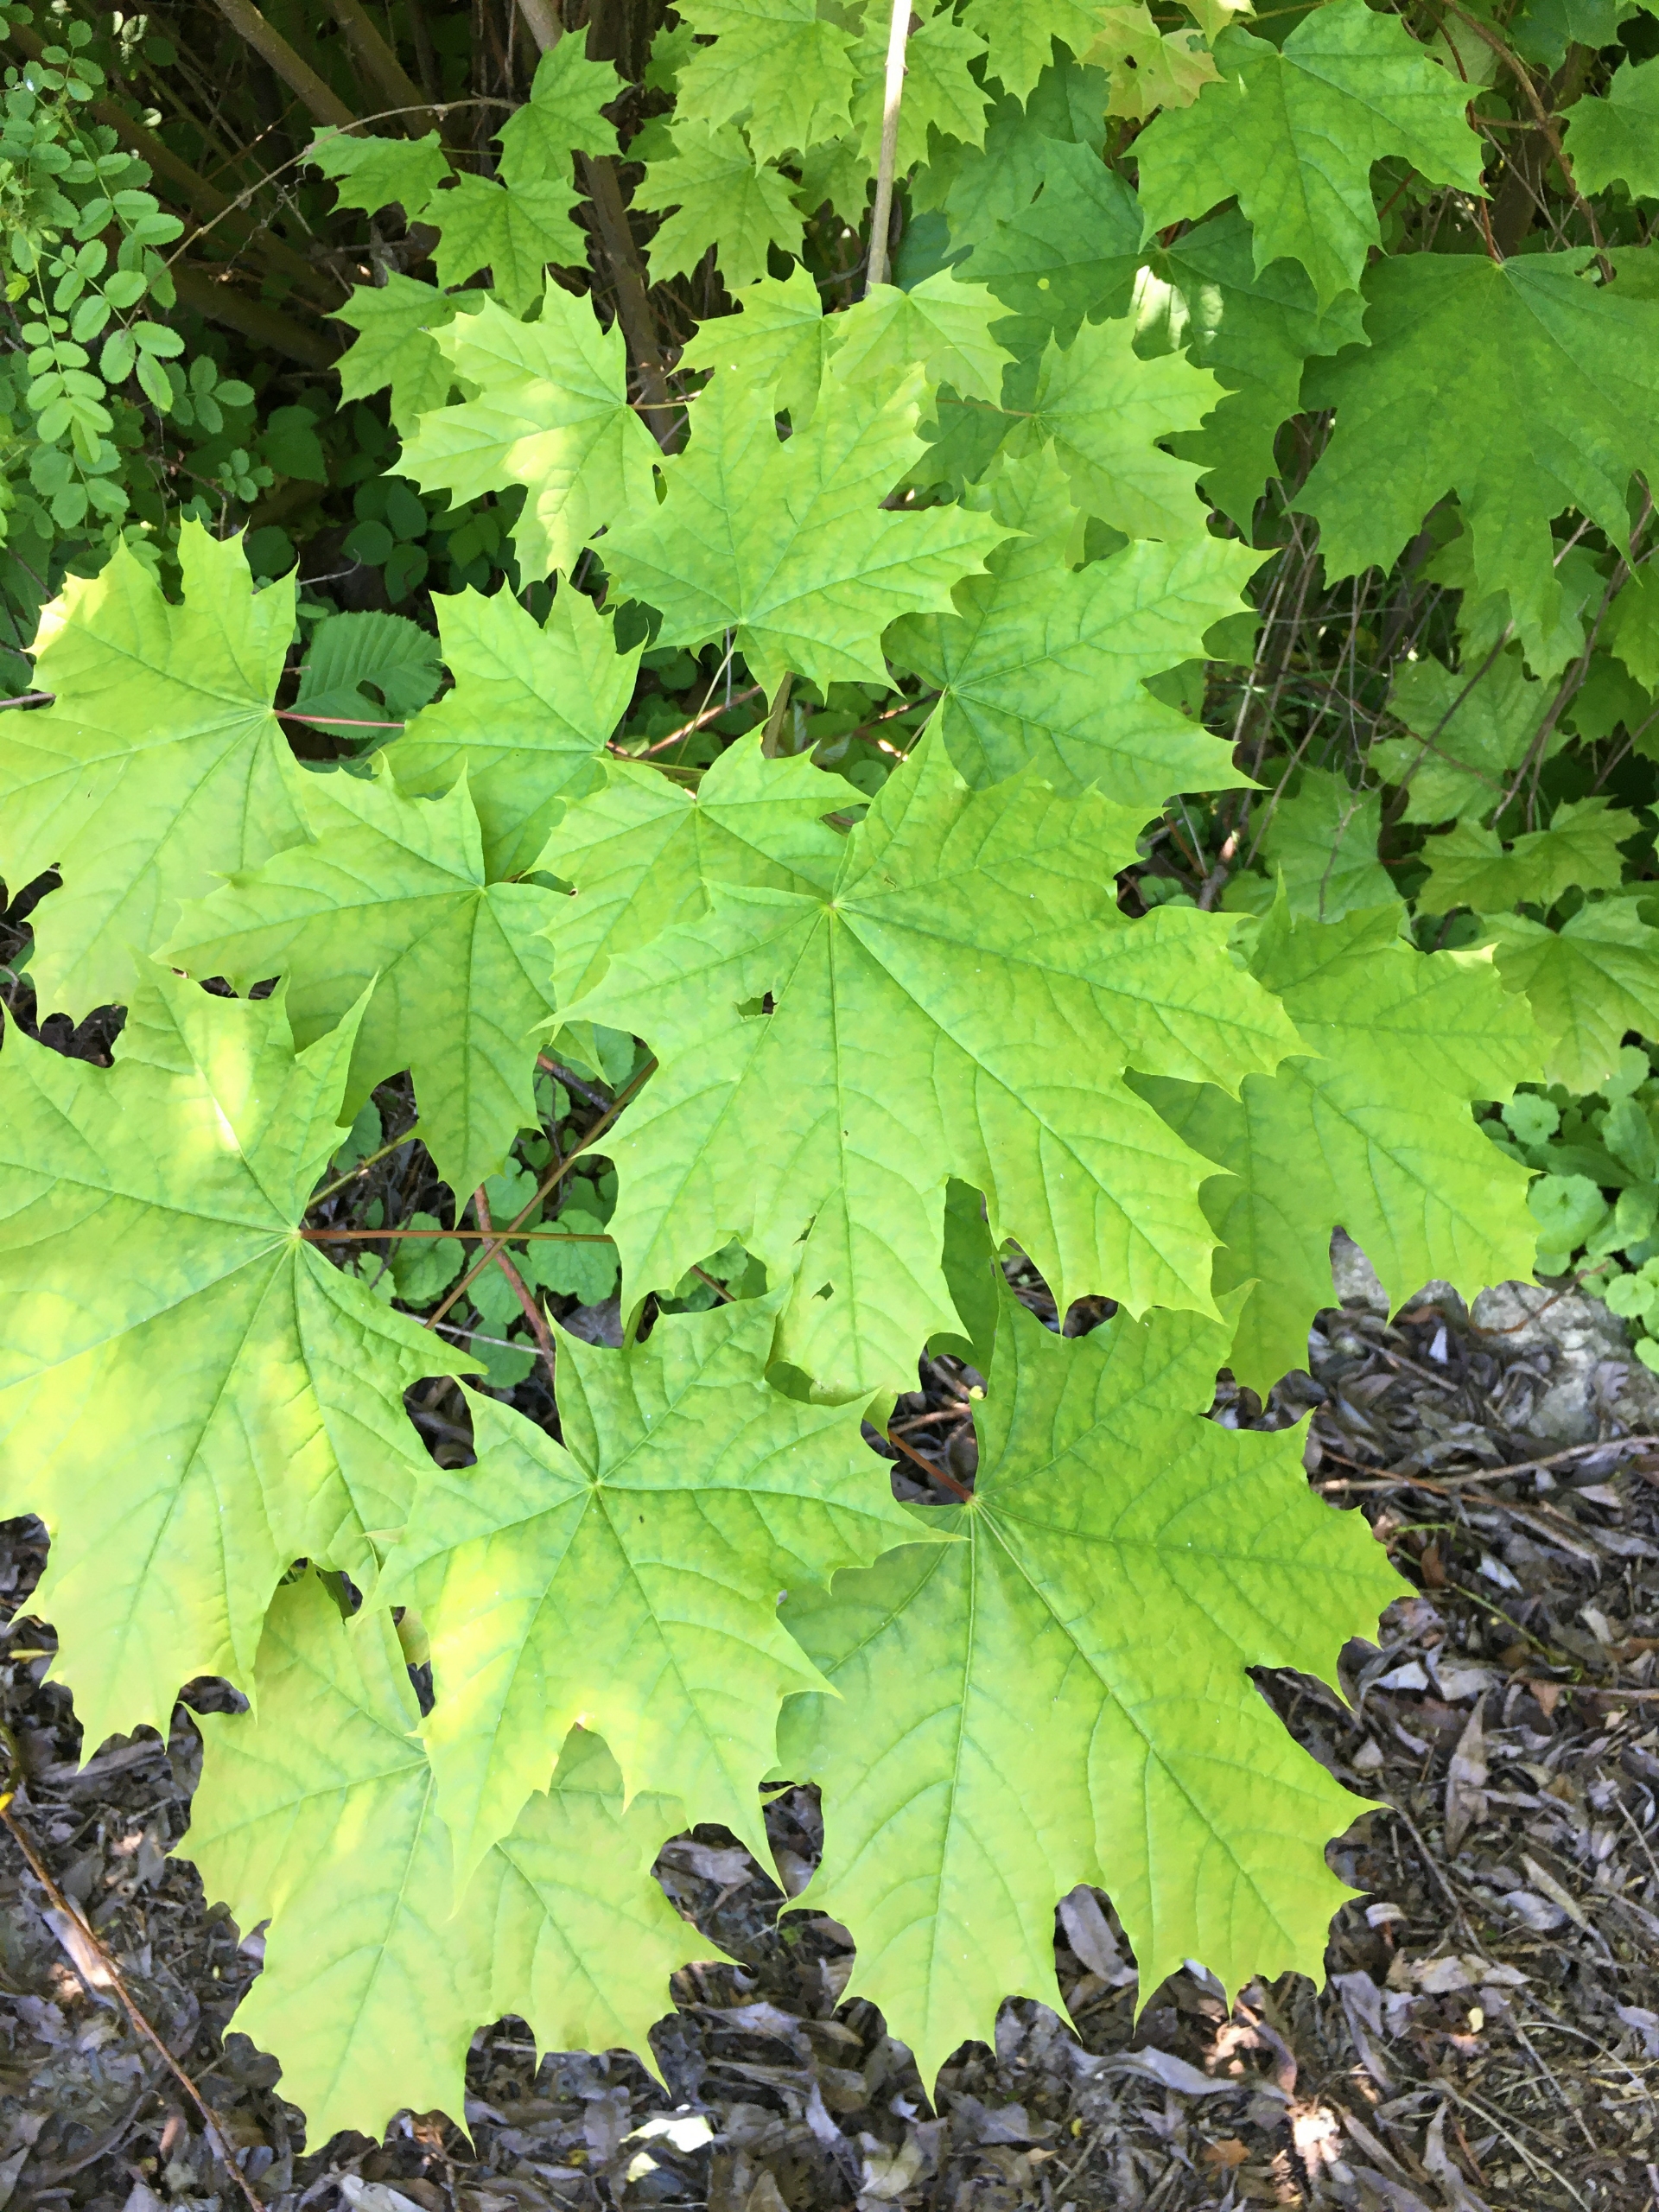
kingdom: Plantae
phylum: Tracheophyta
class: Magnoliopsida
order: Sapindales
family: Sapindaceae
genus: Acer
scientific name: Acer platanoides
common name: Spids-løn
